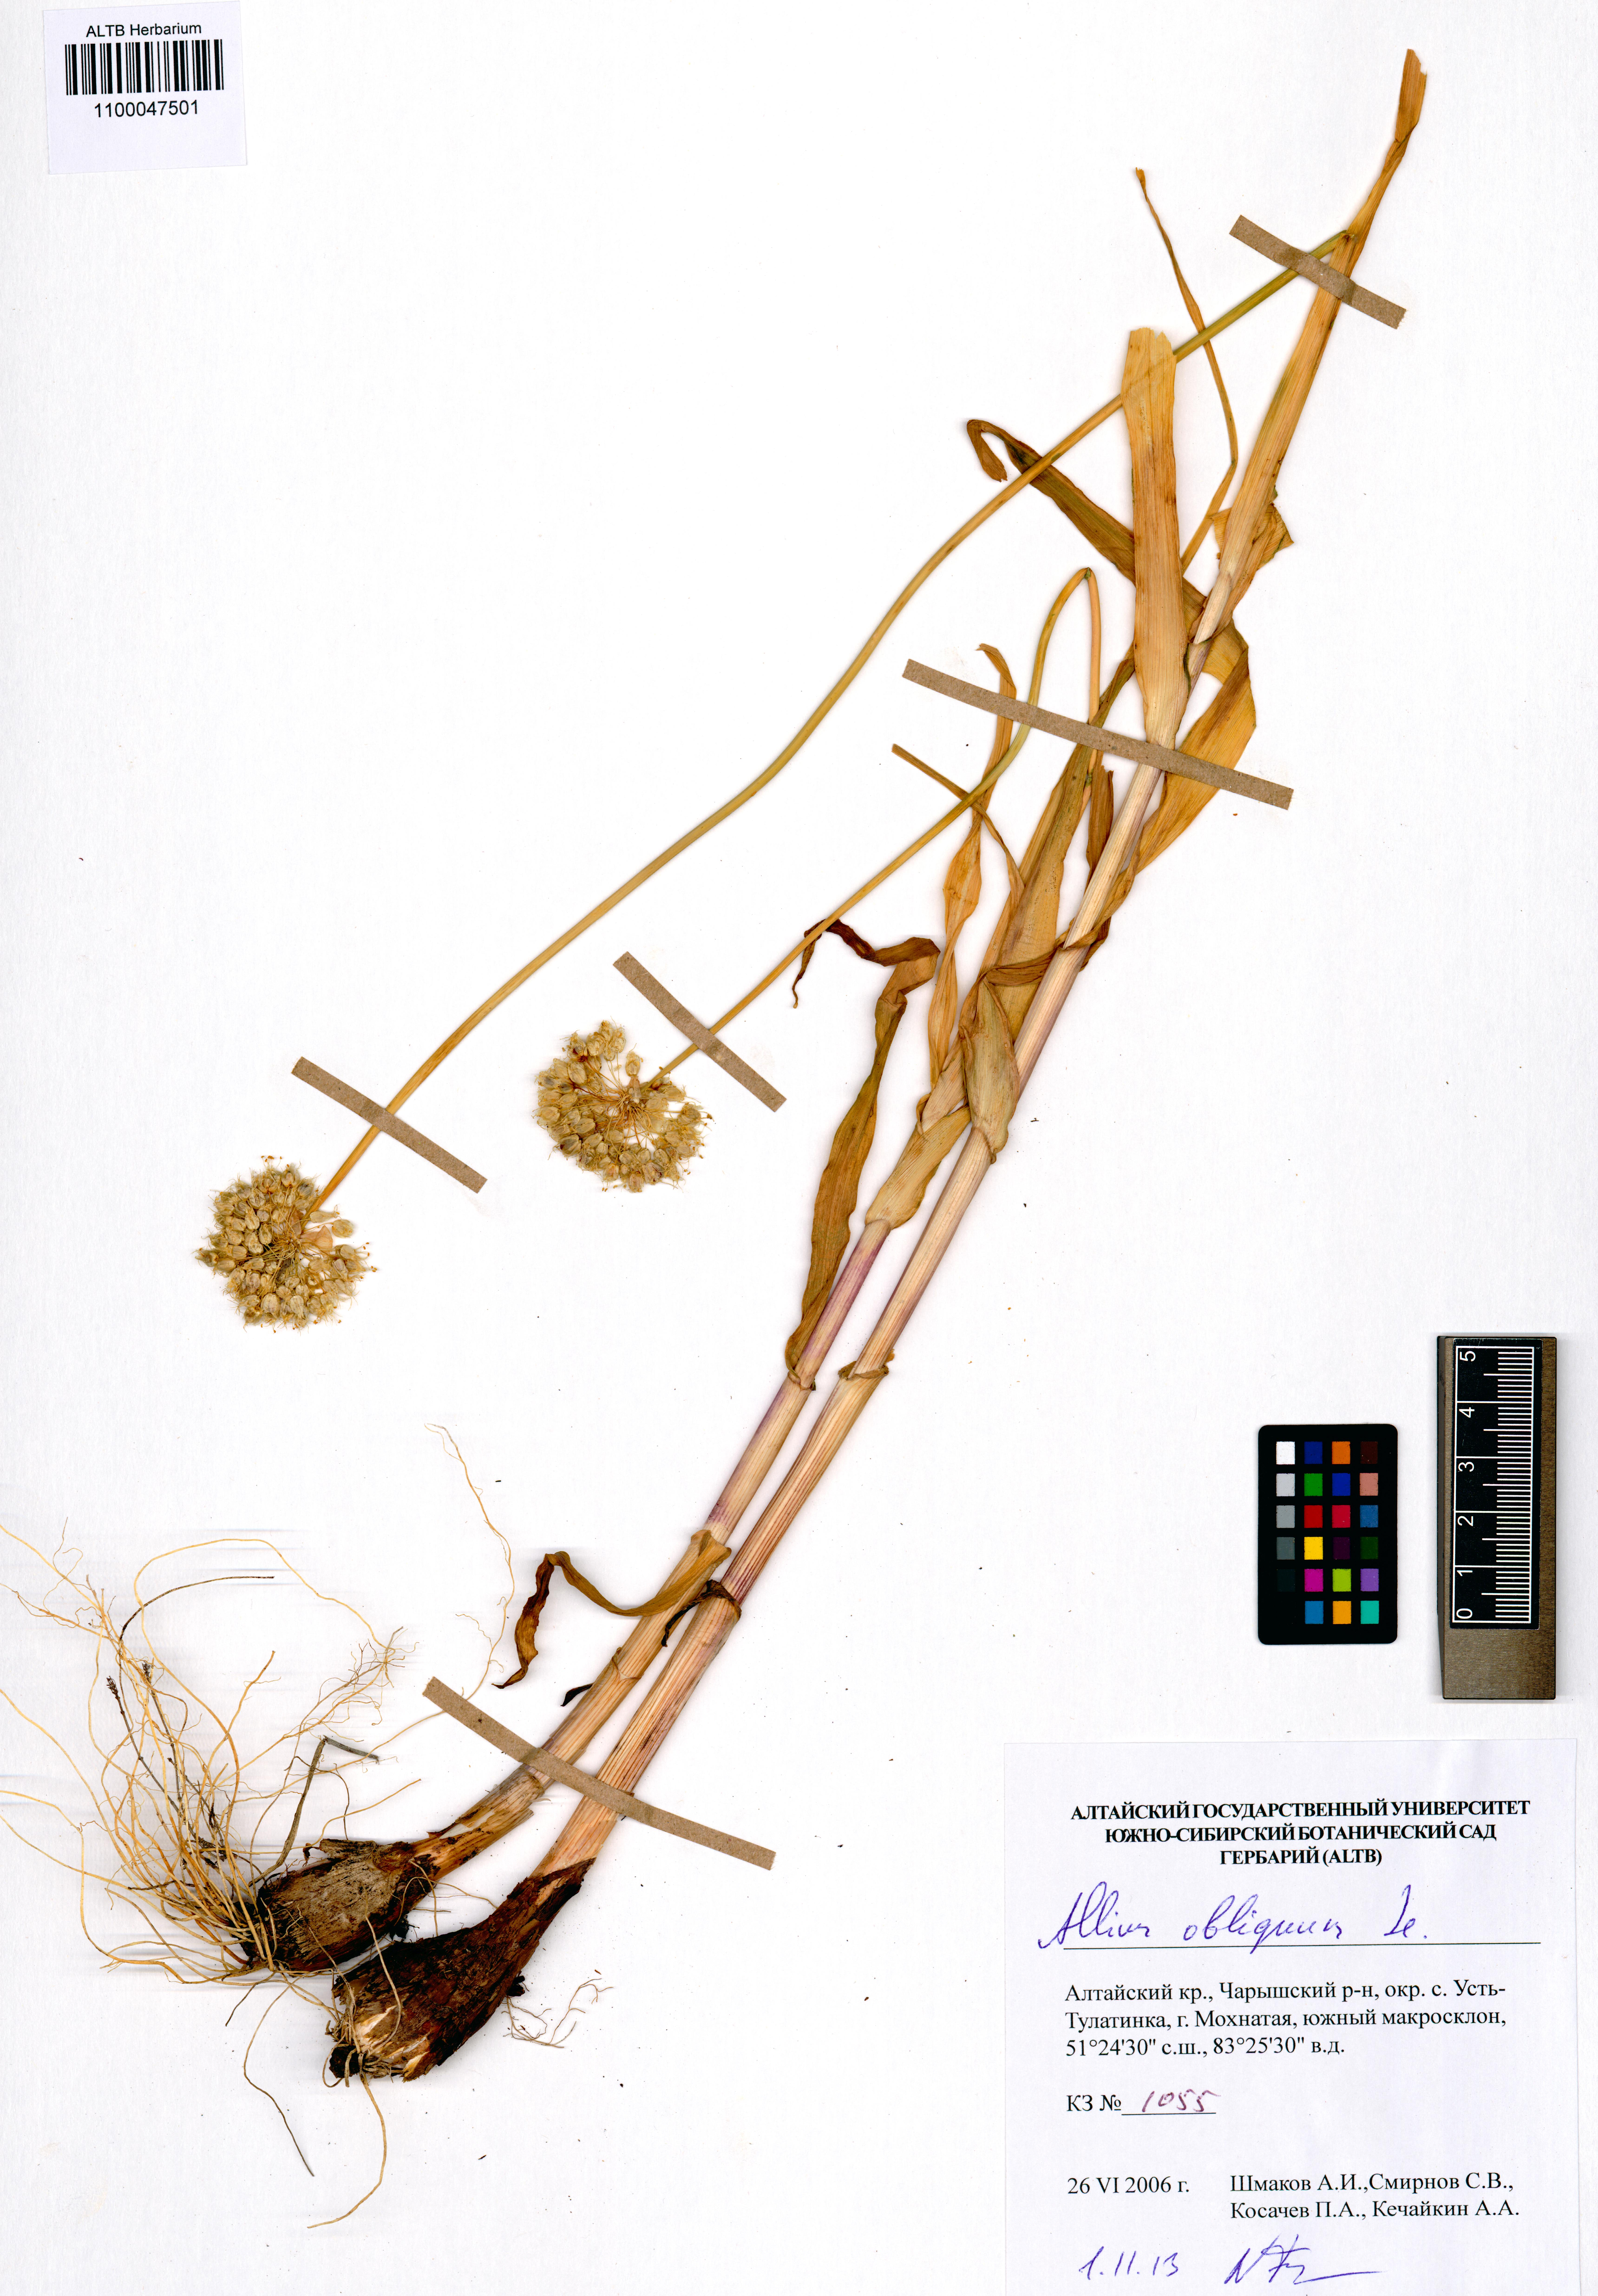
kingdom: Plantae
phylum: Tracheophyta
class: Liliopsida
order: Asparagales
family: Amaryllidaceae
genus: Allium
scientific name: Allium obliquum
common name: Oblique onion
